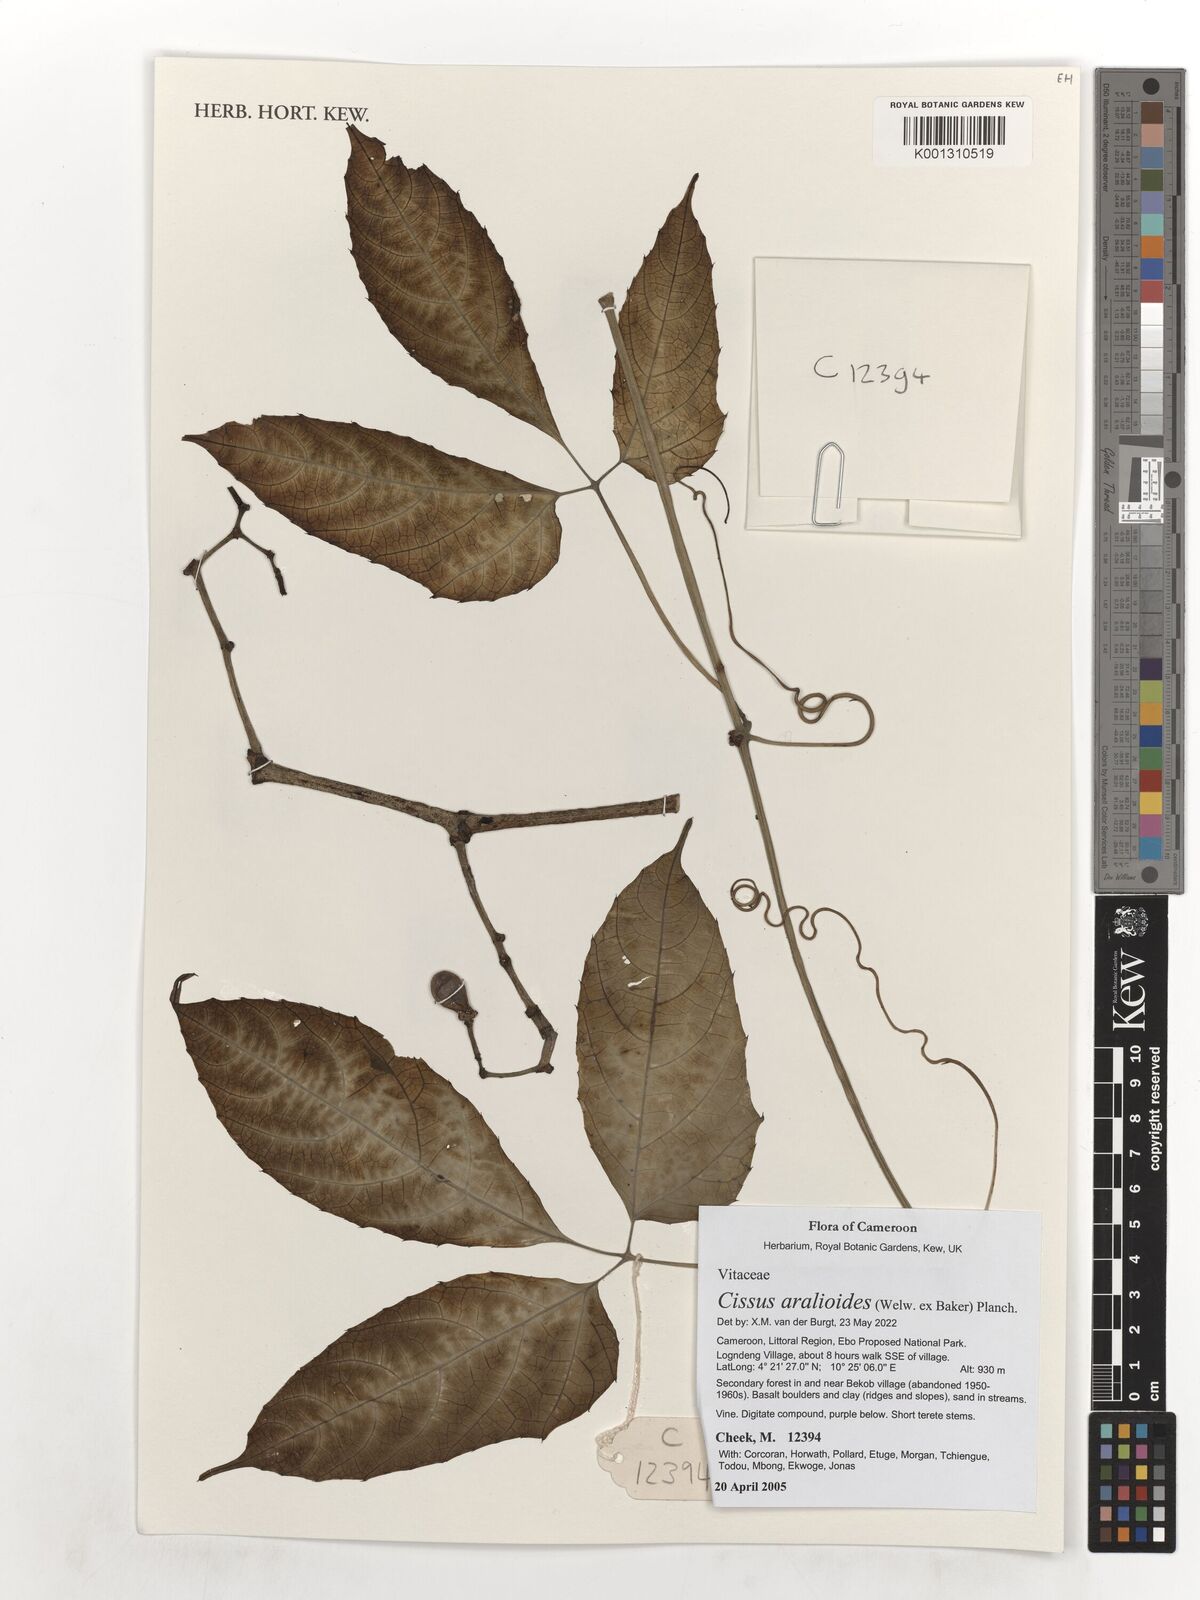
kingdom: Plantae
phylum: Tracheophyta
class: Magnoliopsida
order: Vitales
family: Vitaceae
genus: Cissus
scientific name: Cissus aralioides
